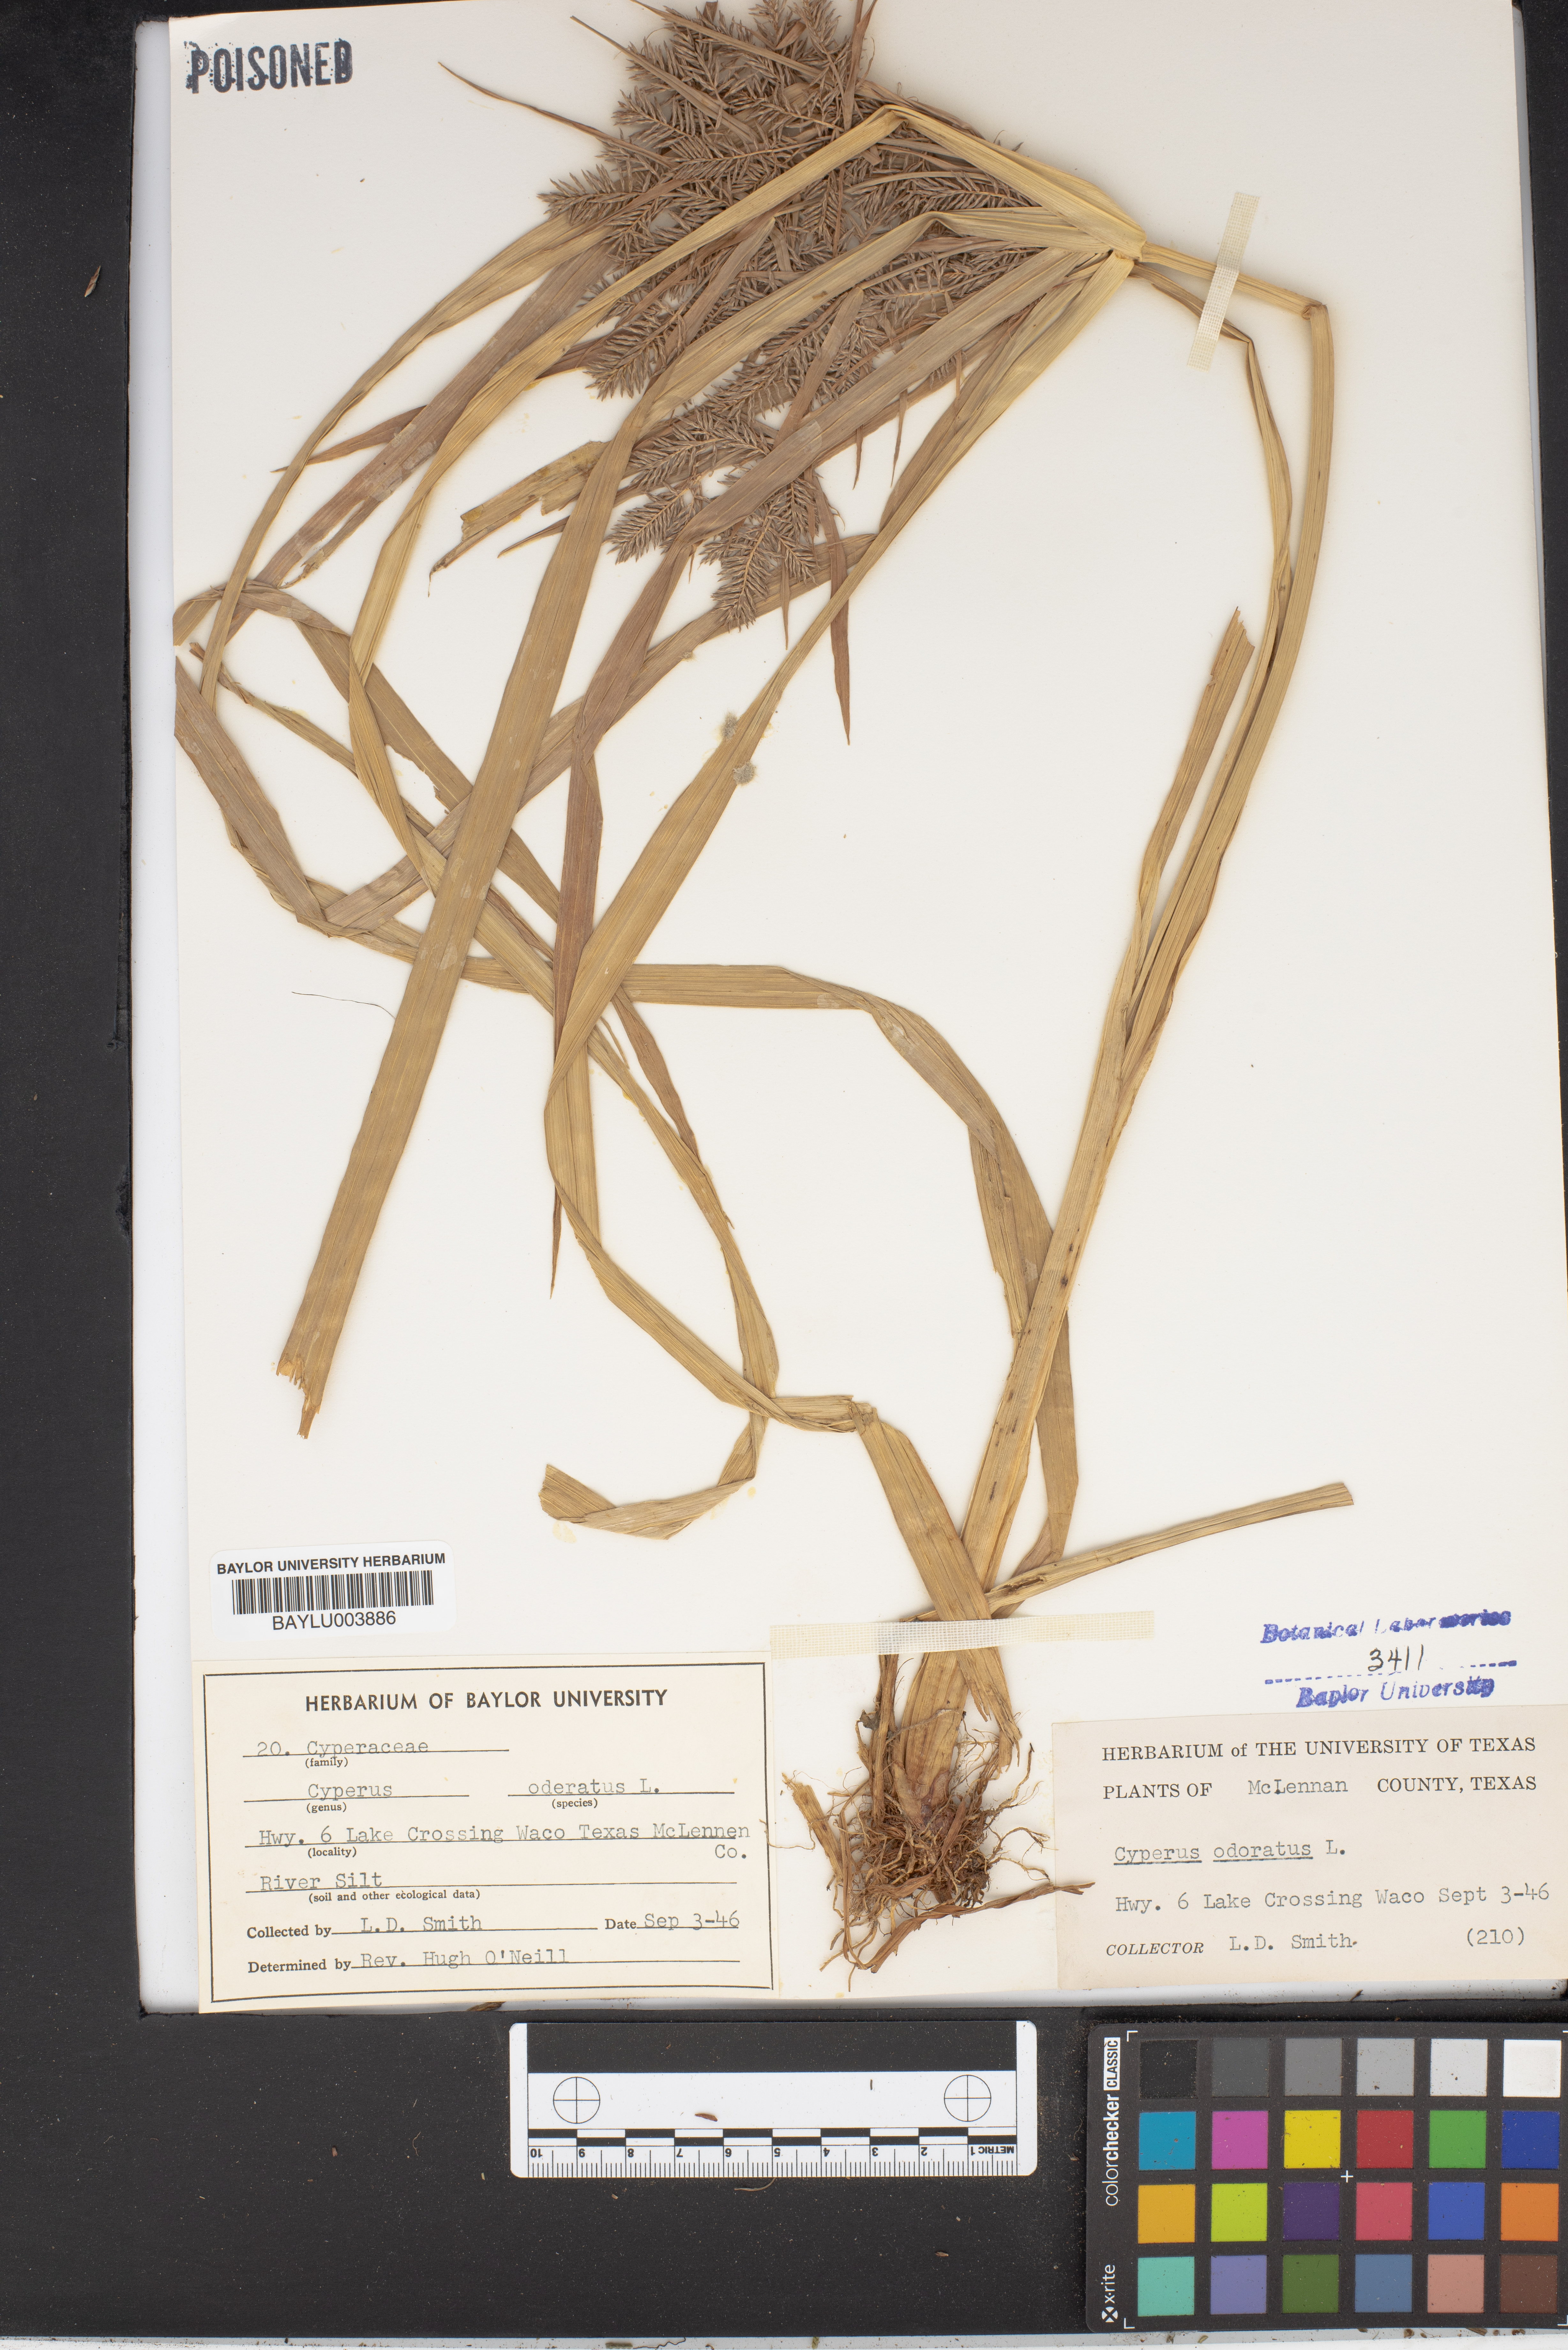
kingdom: Plantae
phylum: Tracheophyta
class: Liliopsida
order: Poales
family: Cyperaceae
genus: Cyperus
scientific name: Cyperus odoratus
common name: Fragrant flatsedge
